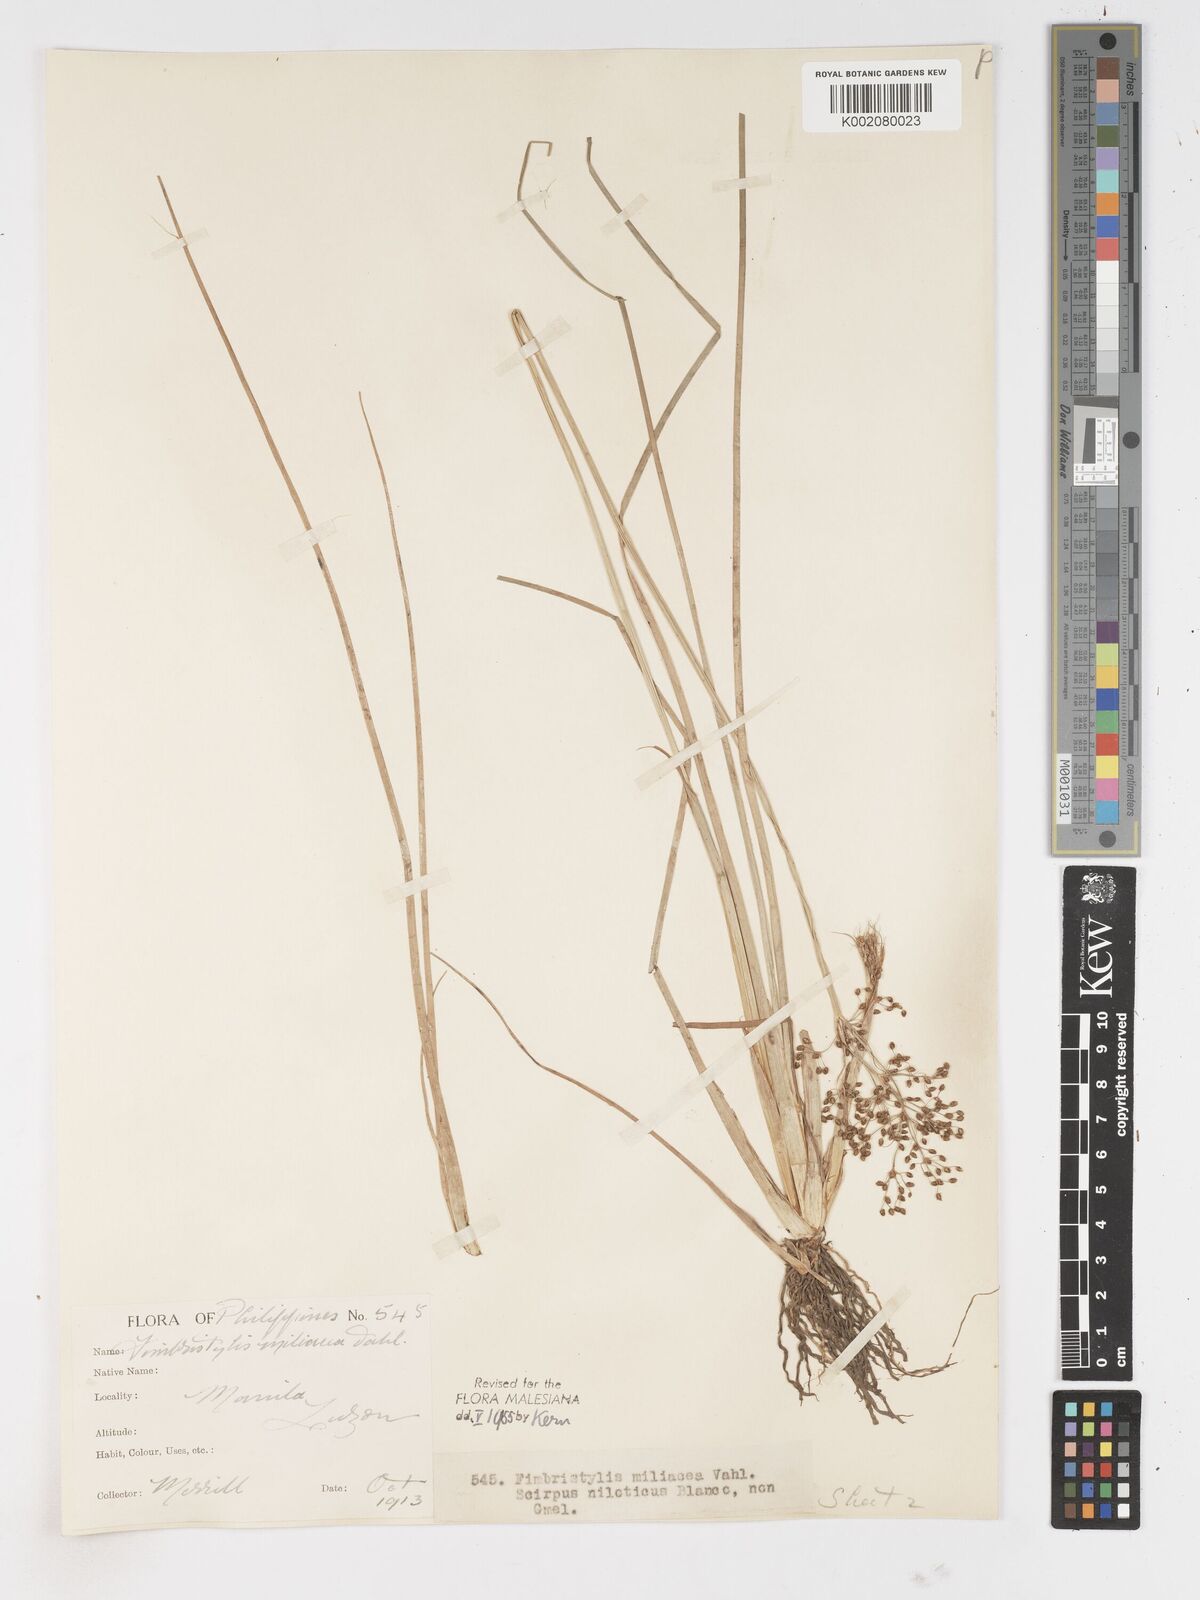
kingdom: Plantae
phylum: Tracheophyta
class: Liliopsida
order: Poales
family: Cyperaceae
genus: Fimbristylis
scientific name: Fimbristylis littoralis
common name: Fimbry
